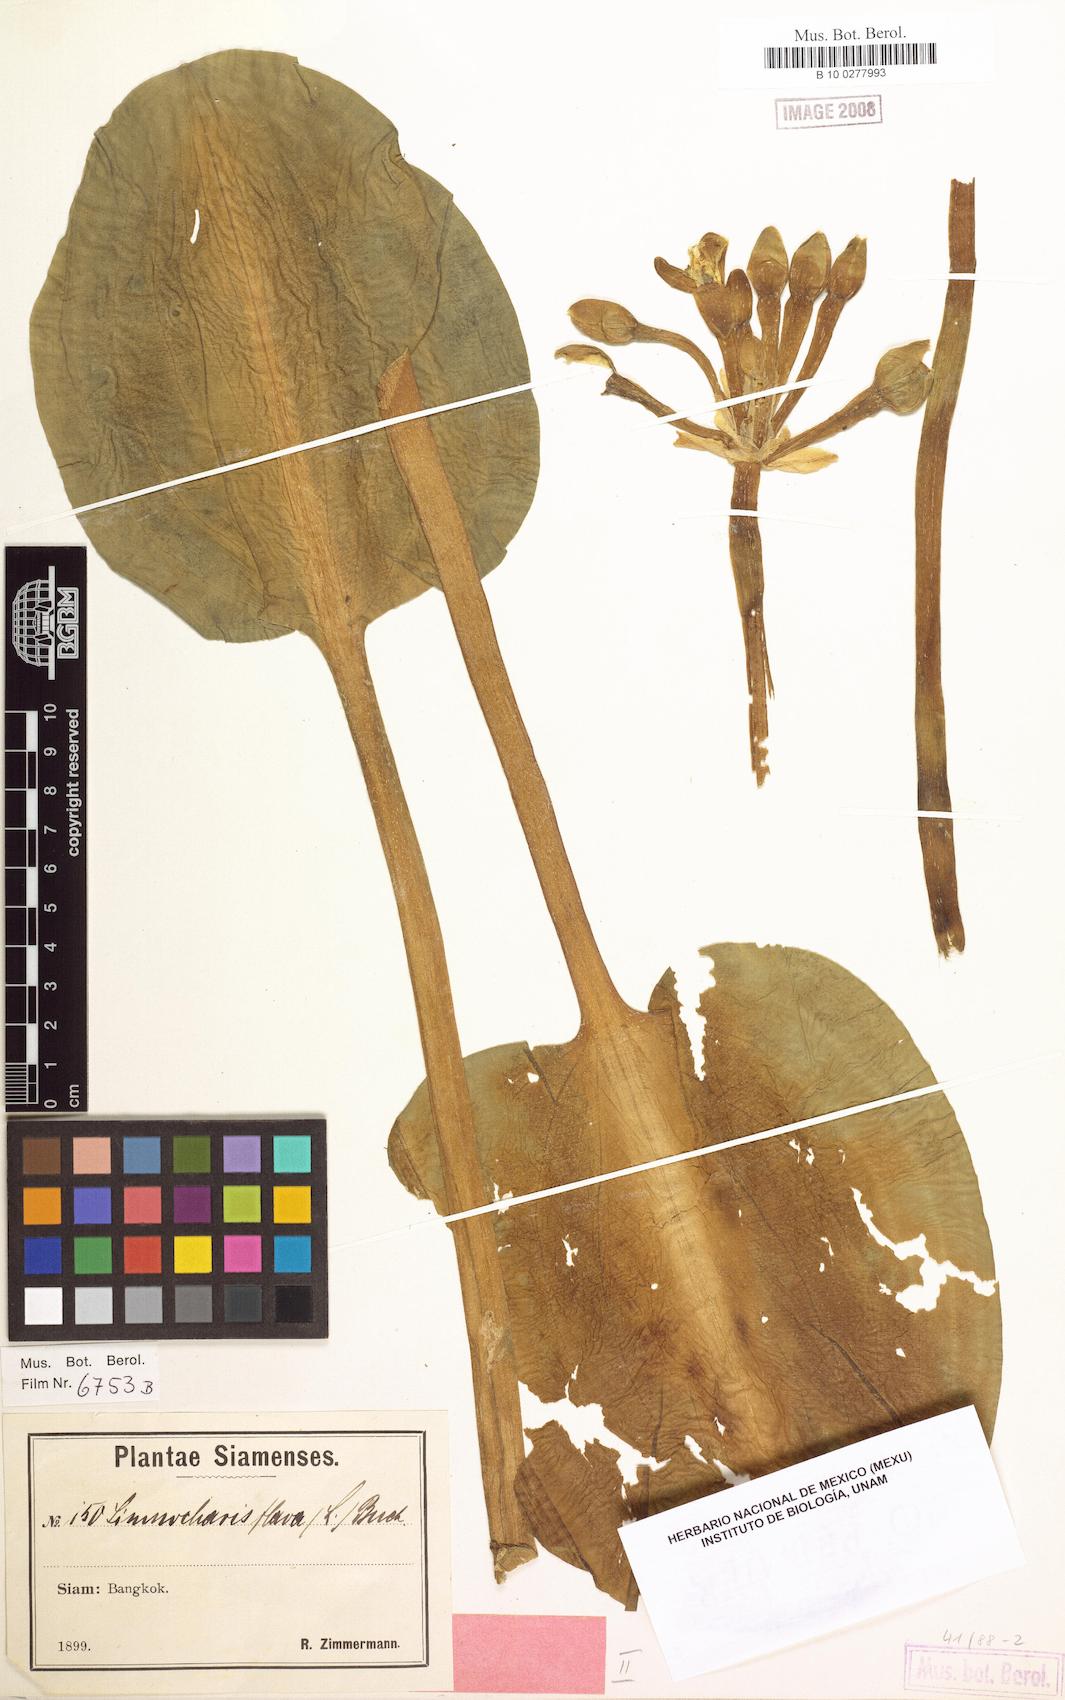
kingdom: Plantae
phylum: Tracheophyta
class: Liliopsida
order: Alismatales
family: Alismataceae
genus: Limnocharis
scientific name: Limnocharis flava
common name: Sawah-flower-rush
